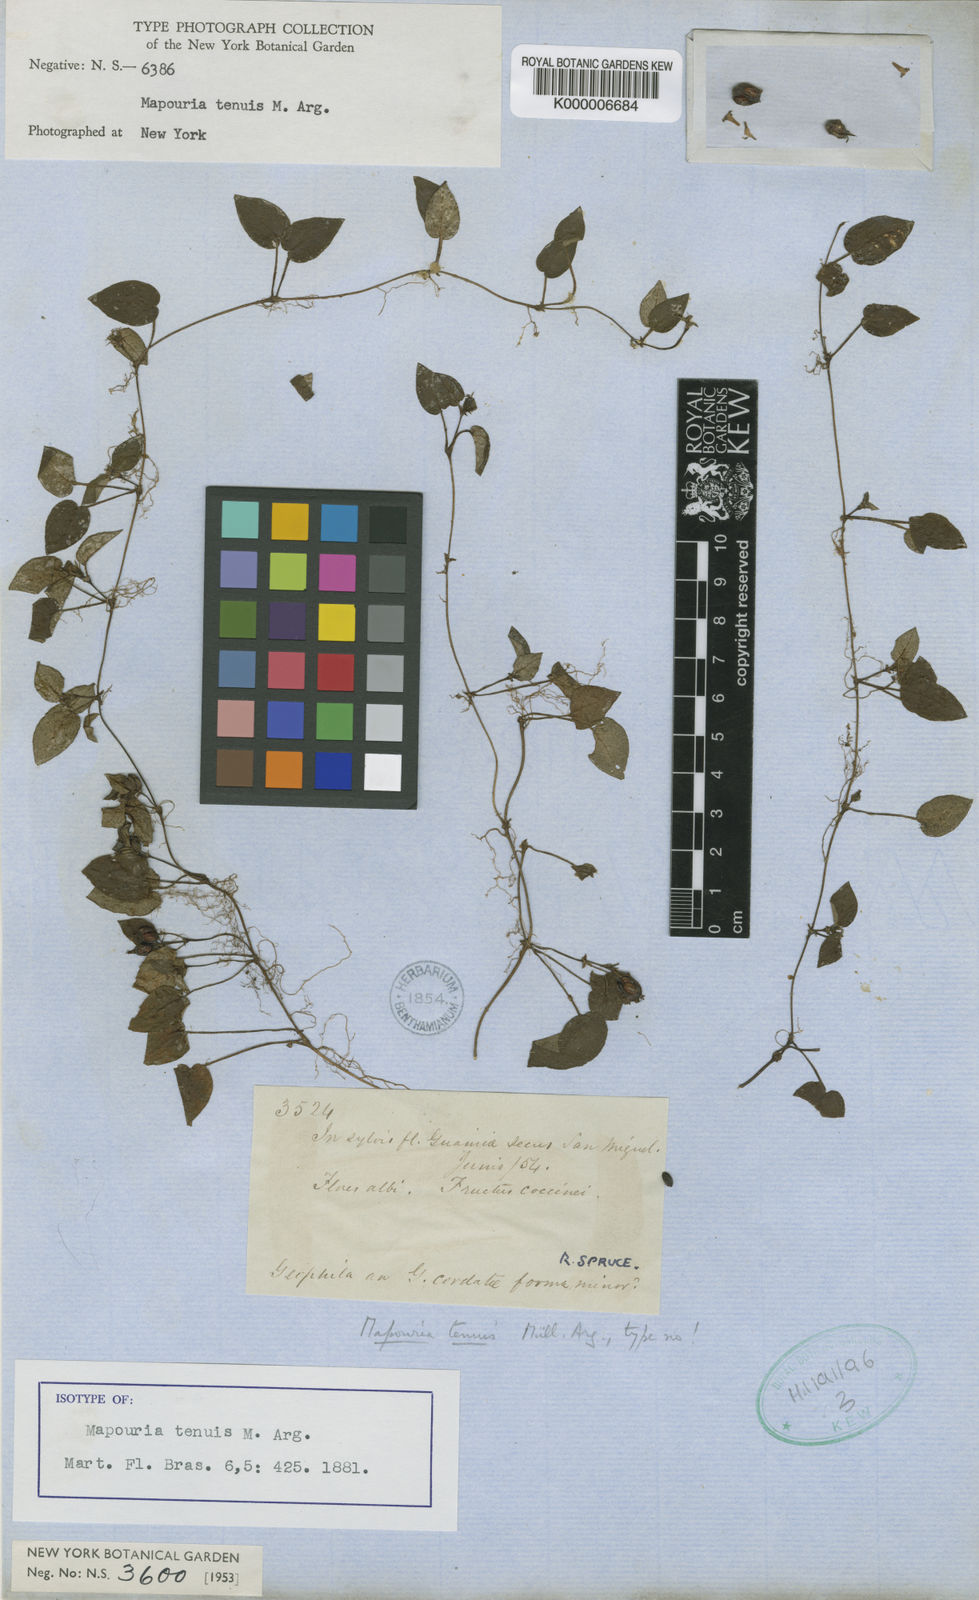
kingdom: Plantae
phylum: Tracheophyta
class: Magnoliopsida
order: Gentianales
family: Rubiaceae
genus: Geophila
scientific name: Geophila
